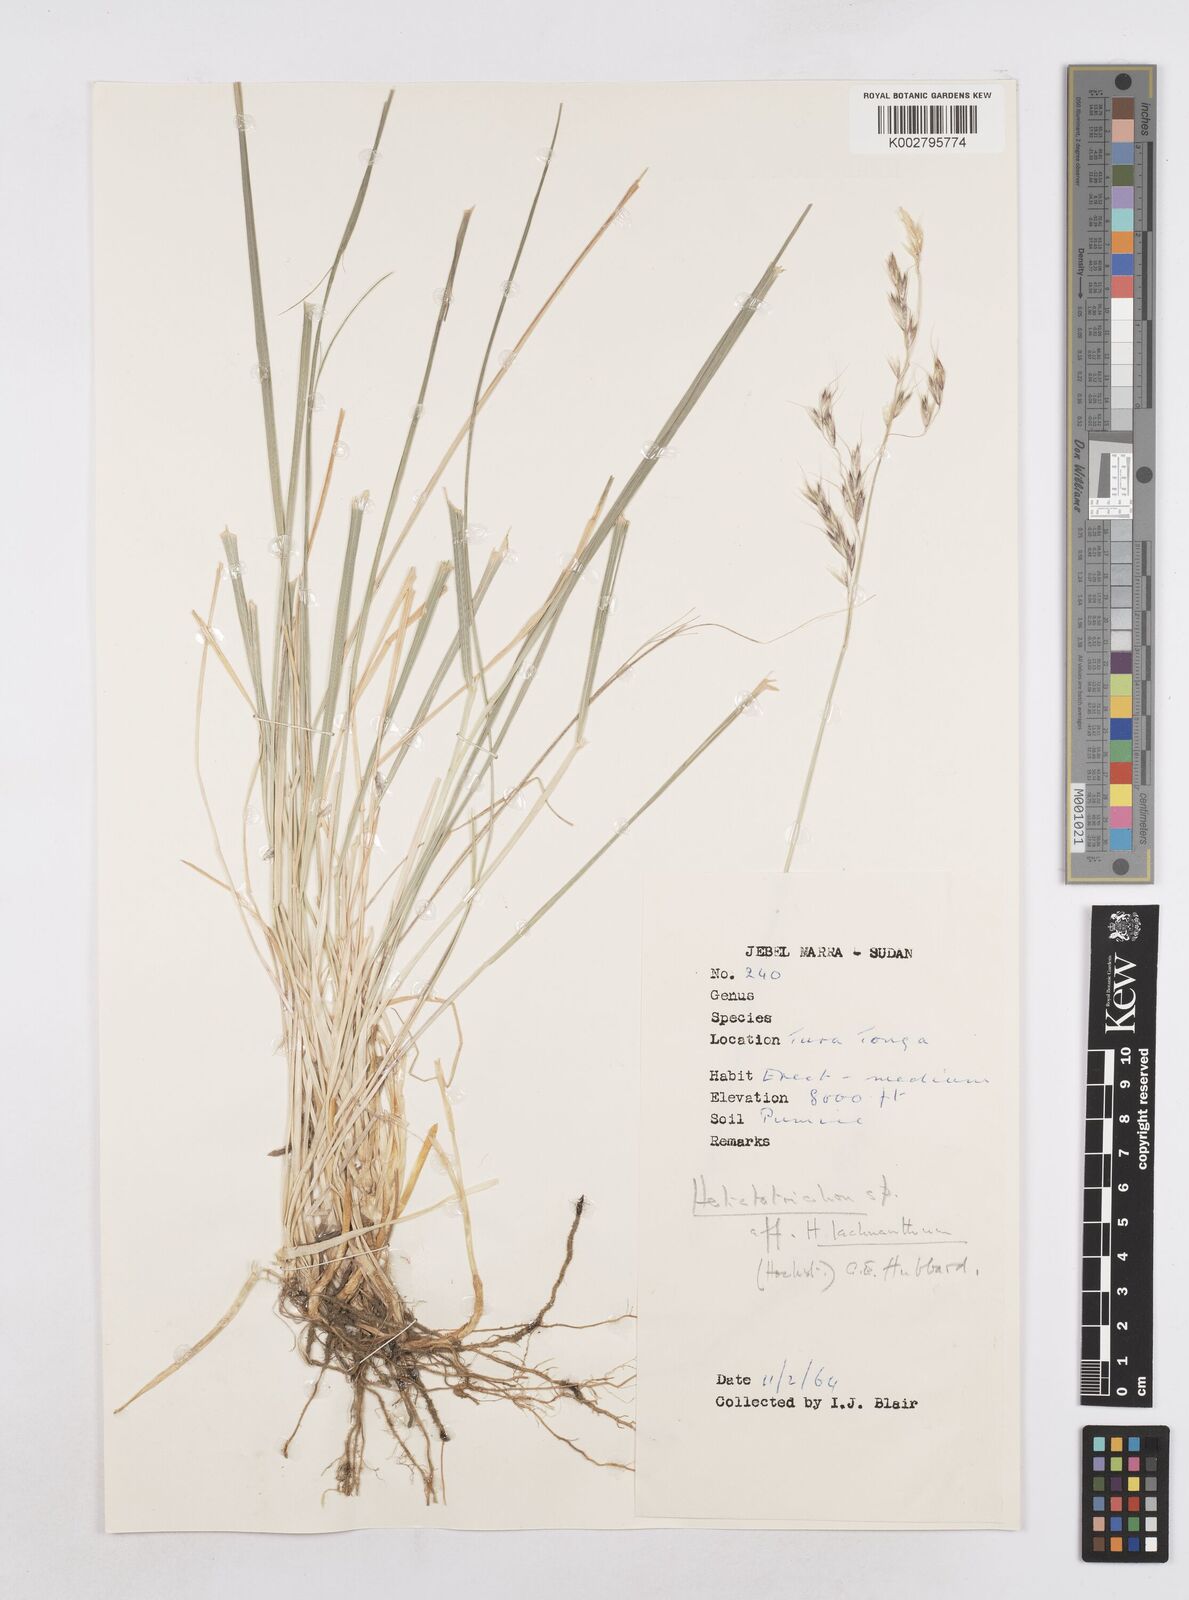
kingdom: Plantae
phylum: Tracheophyta
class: Liliopsida
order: Poales
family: Poaceae
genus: Trisetopsis
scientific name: Trisetopsis elongata
